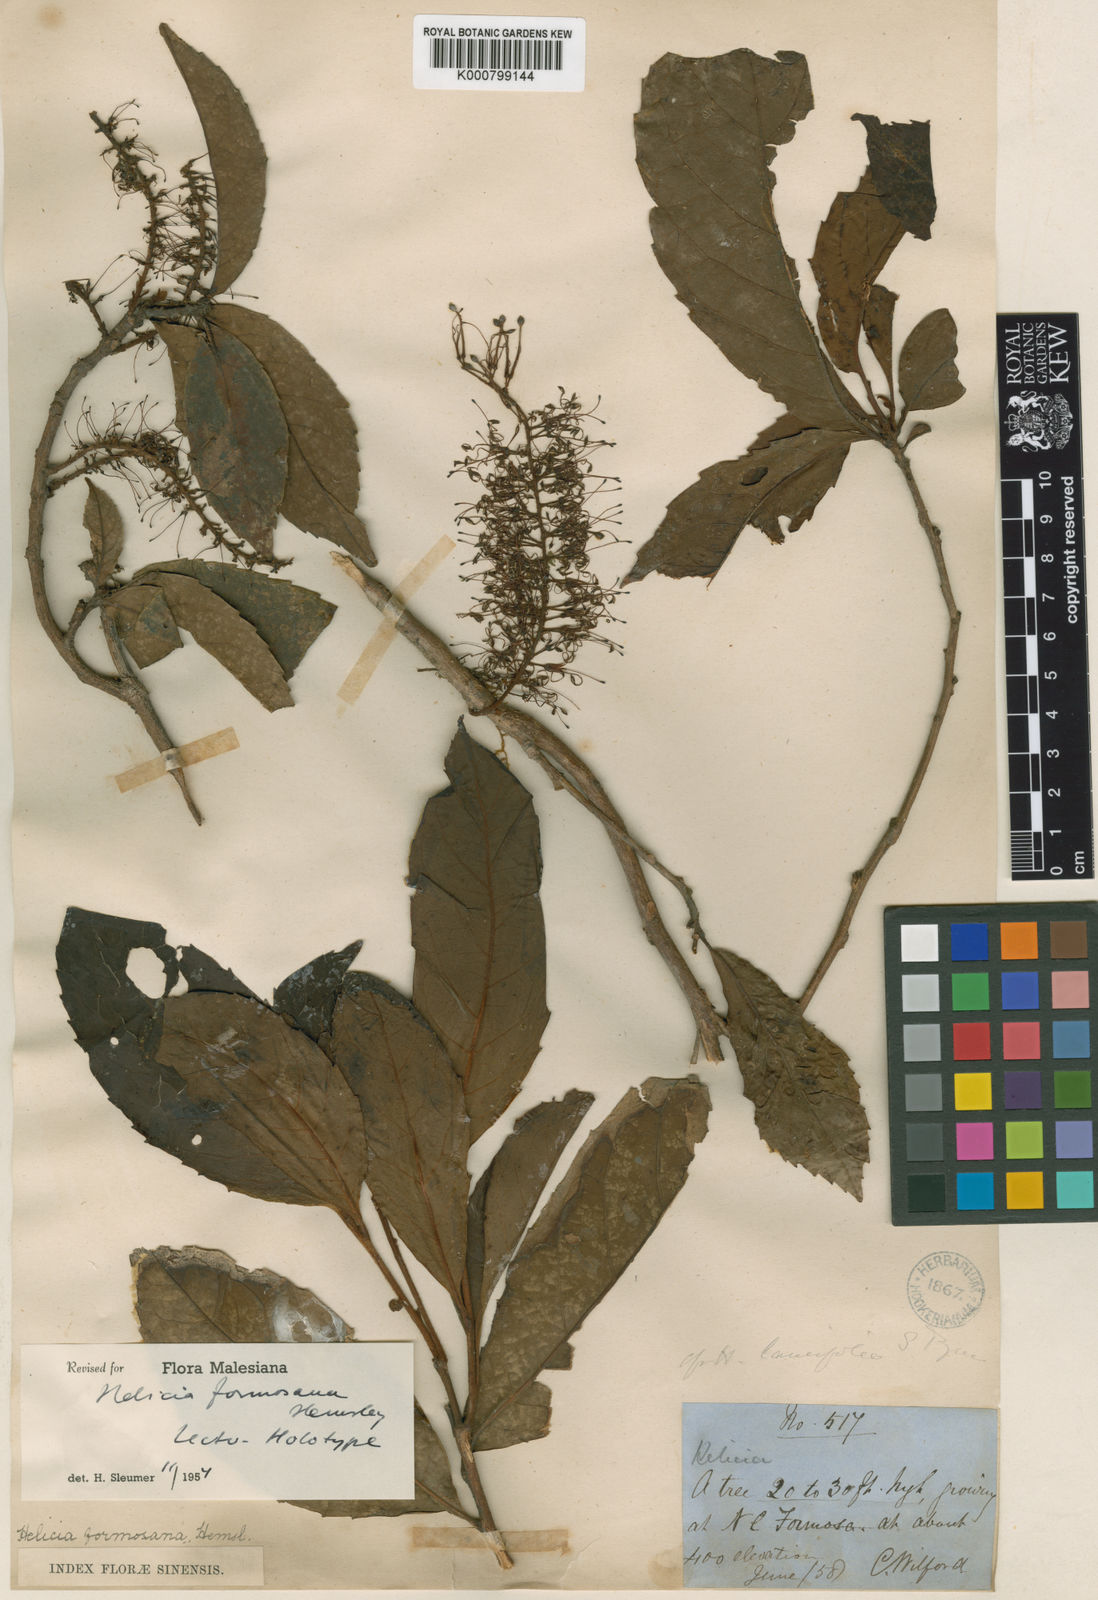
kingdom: Plantae
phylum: Tracheophyta
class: Magnoliopsida
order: Proteales
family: Proteaceae
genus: Helicia
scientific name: Helicia formosana
